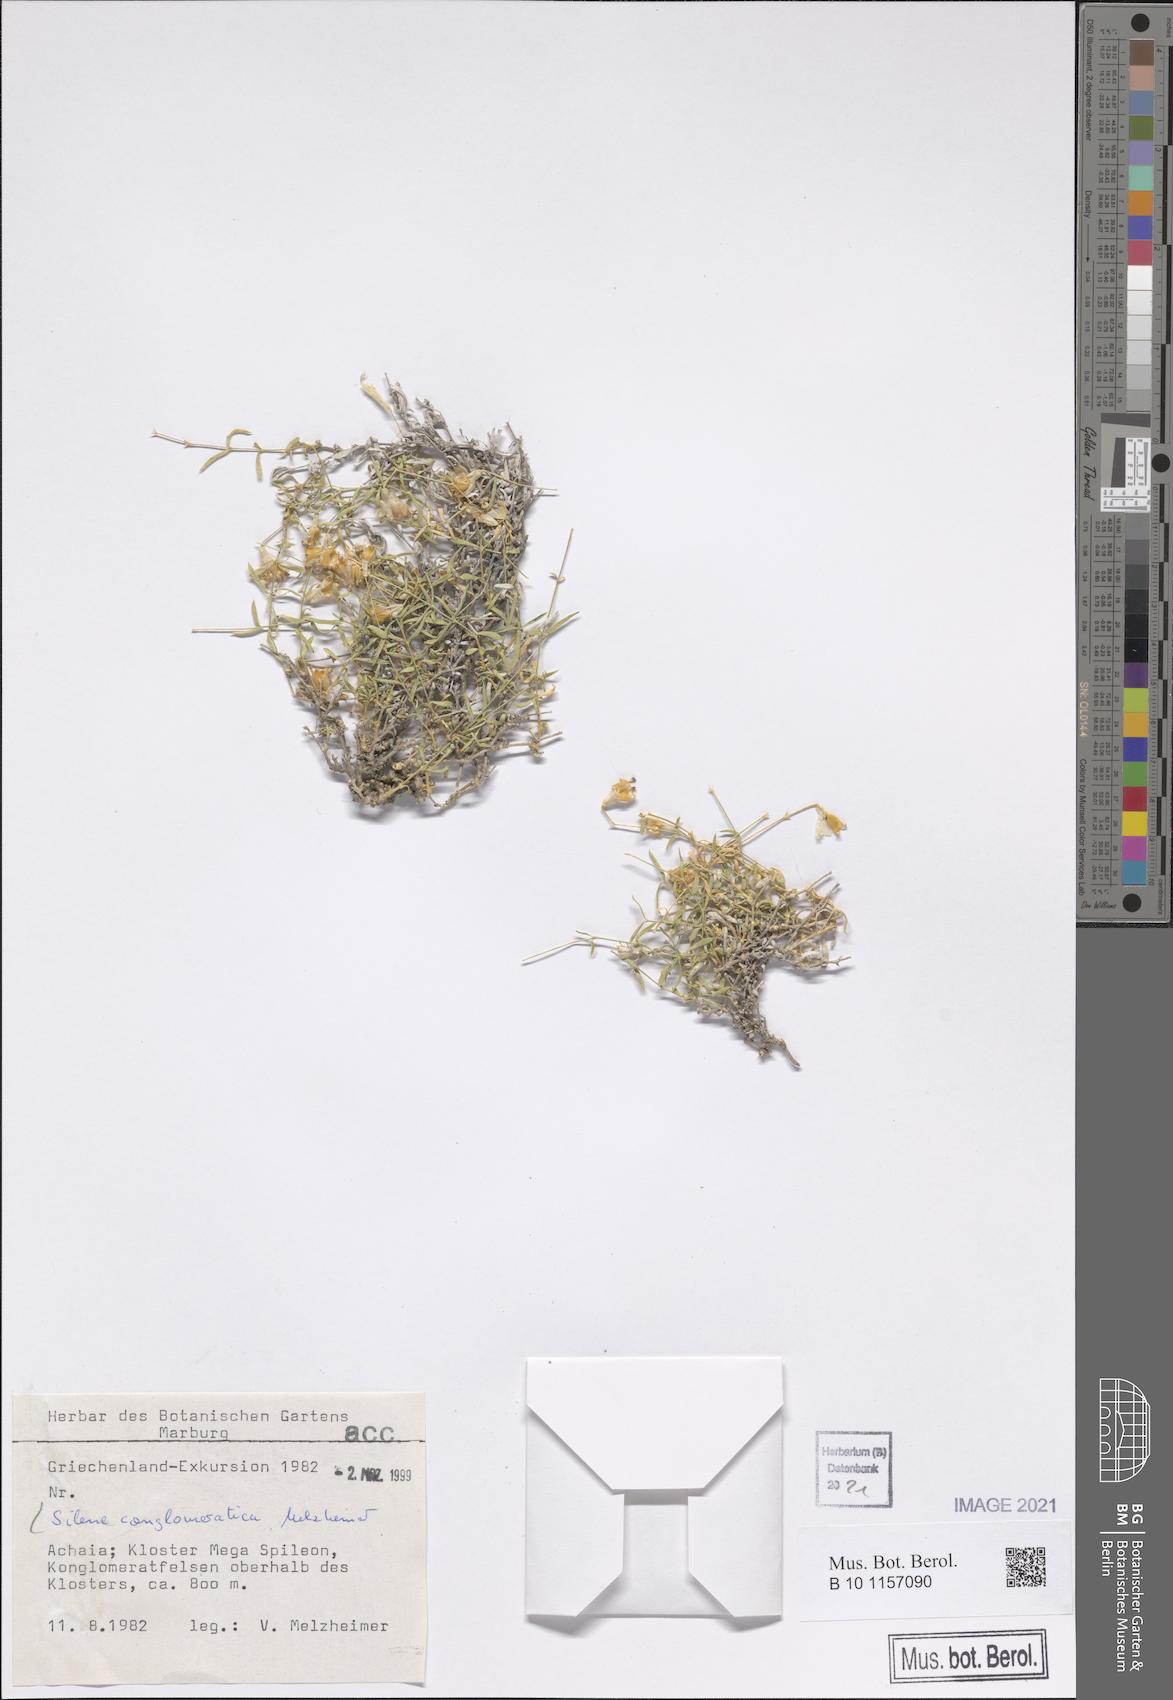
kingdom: Plantae
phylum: Tracheophyta
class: Magnoliopsida
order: Caryophyllales
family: Caryophyllaceae
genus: Silene
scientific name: Silene conglomeratica
